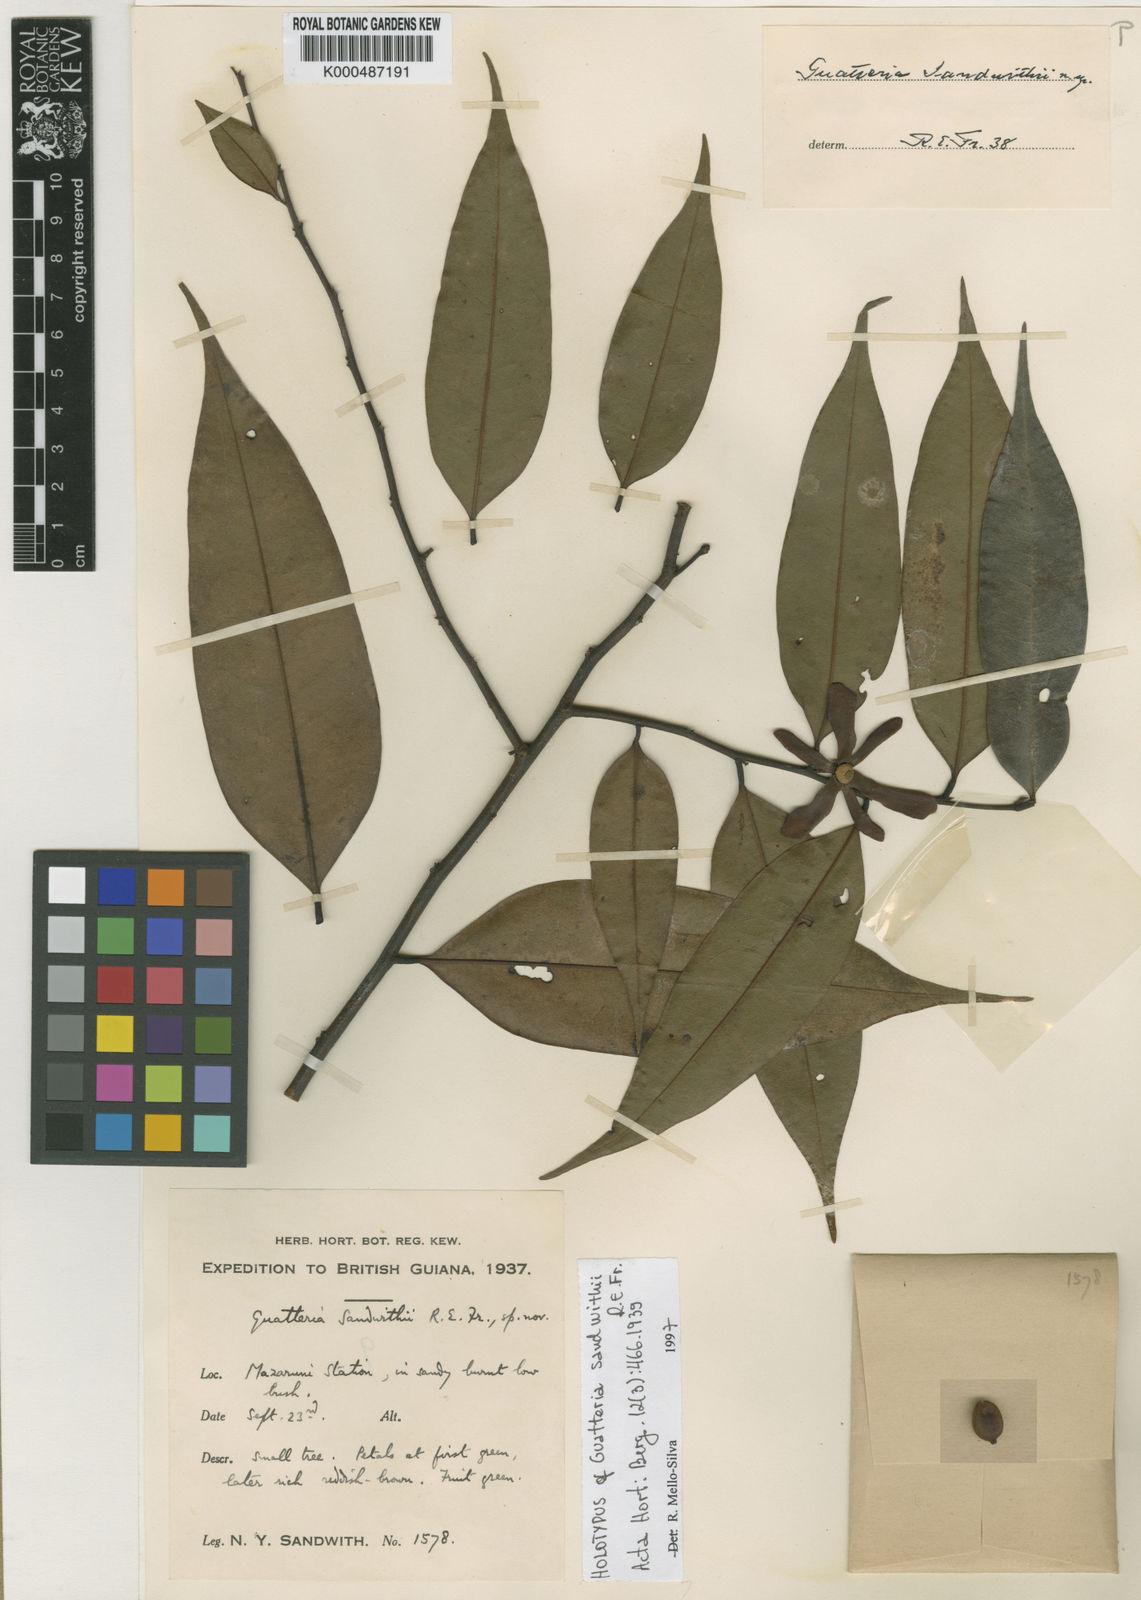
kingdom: Plantae
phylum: Tracheophyta
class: Magnoliopsida
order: Magnoliales
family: Annonaceae
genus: Guatteria
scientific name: Guatteria schomburgkiana
